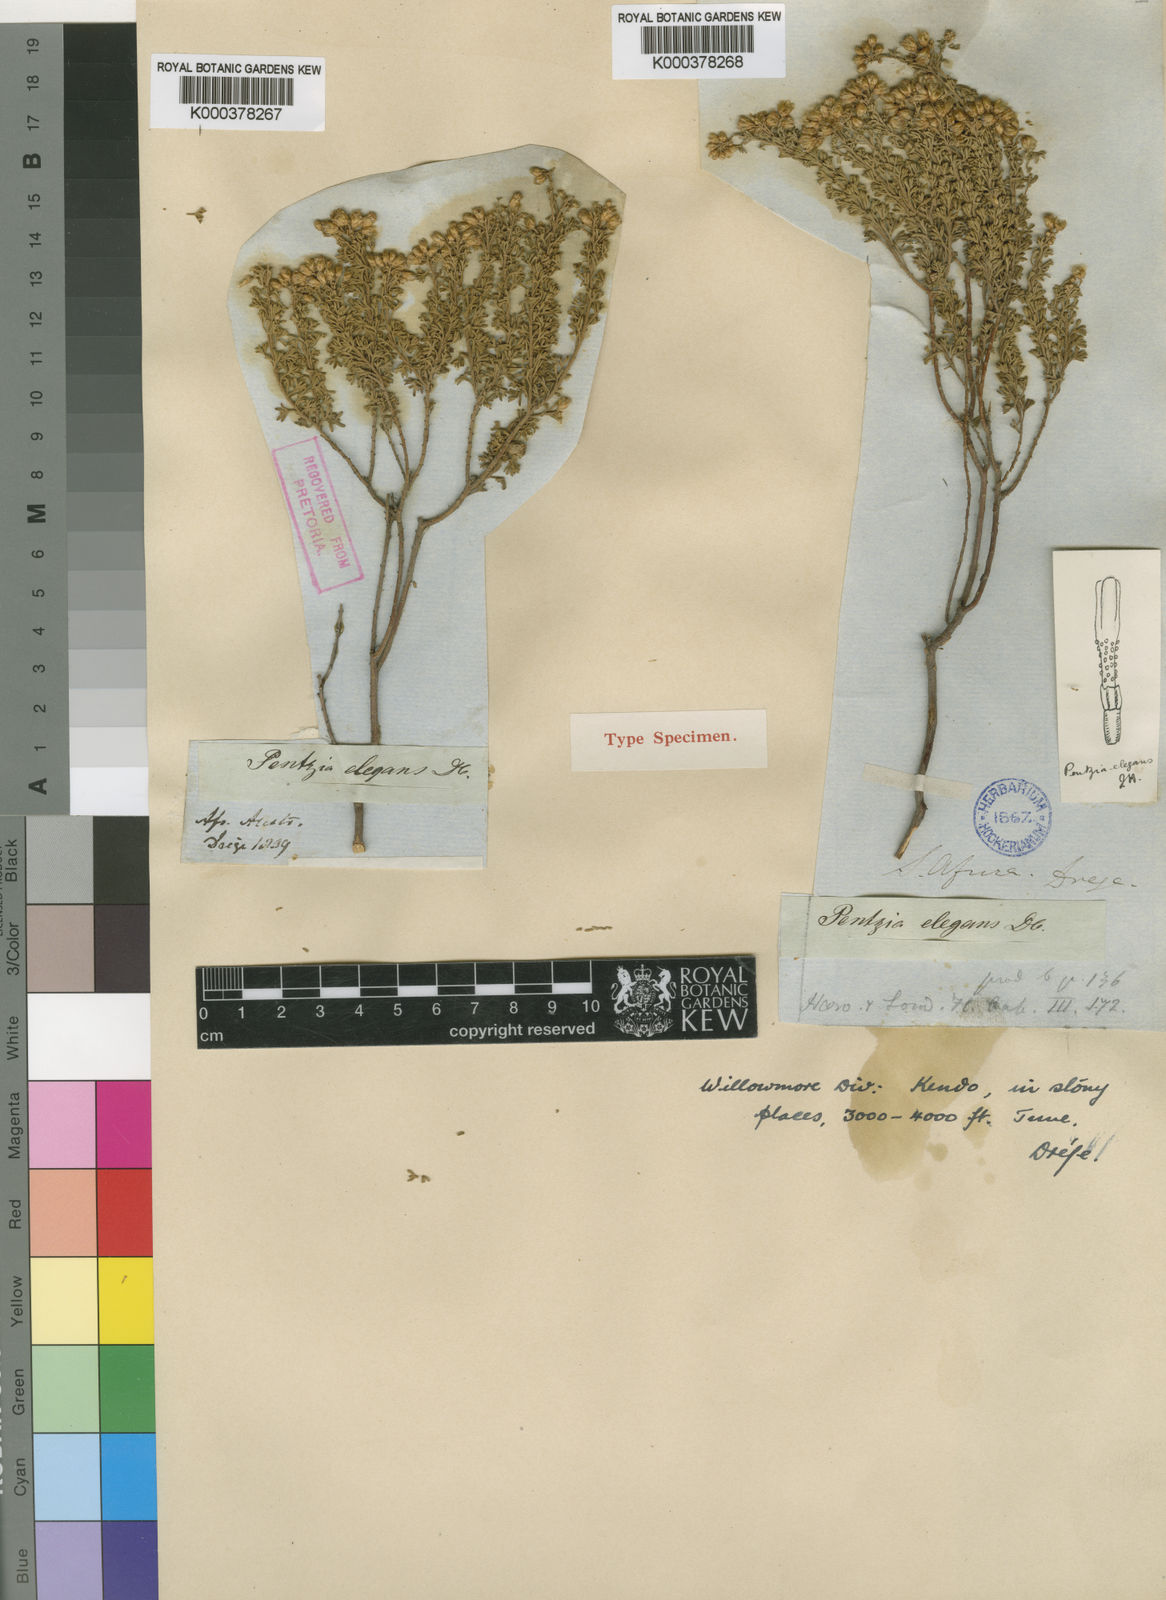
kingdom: Plantae
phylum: Tracheophyta
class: Magnoliopsida
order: Asterales
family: Asteraceae
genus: Pentzia
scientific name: Pentzia bolusii
